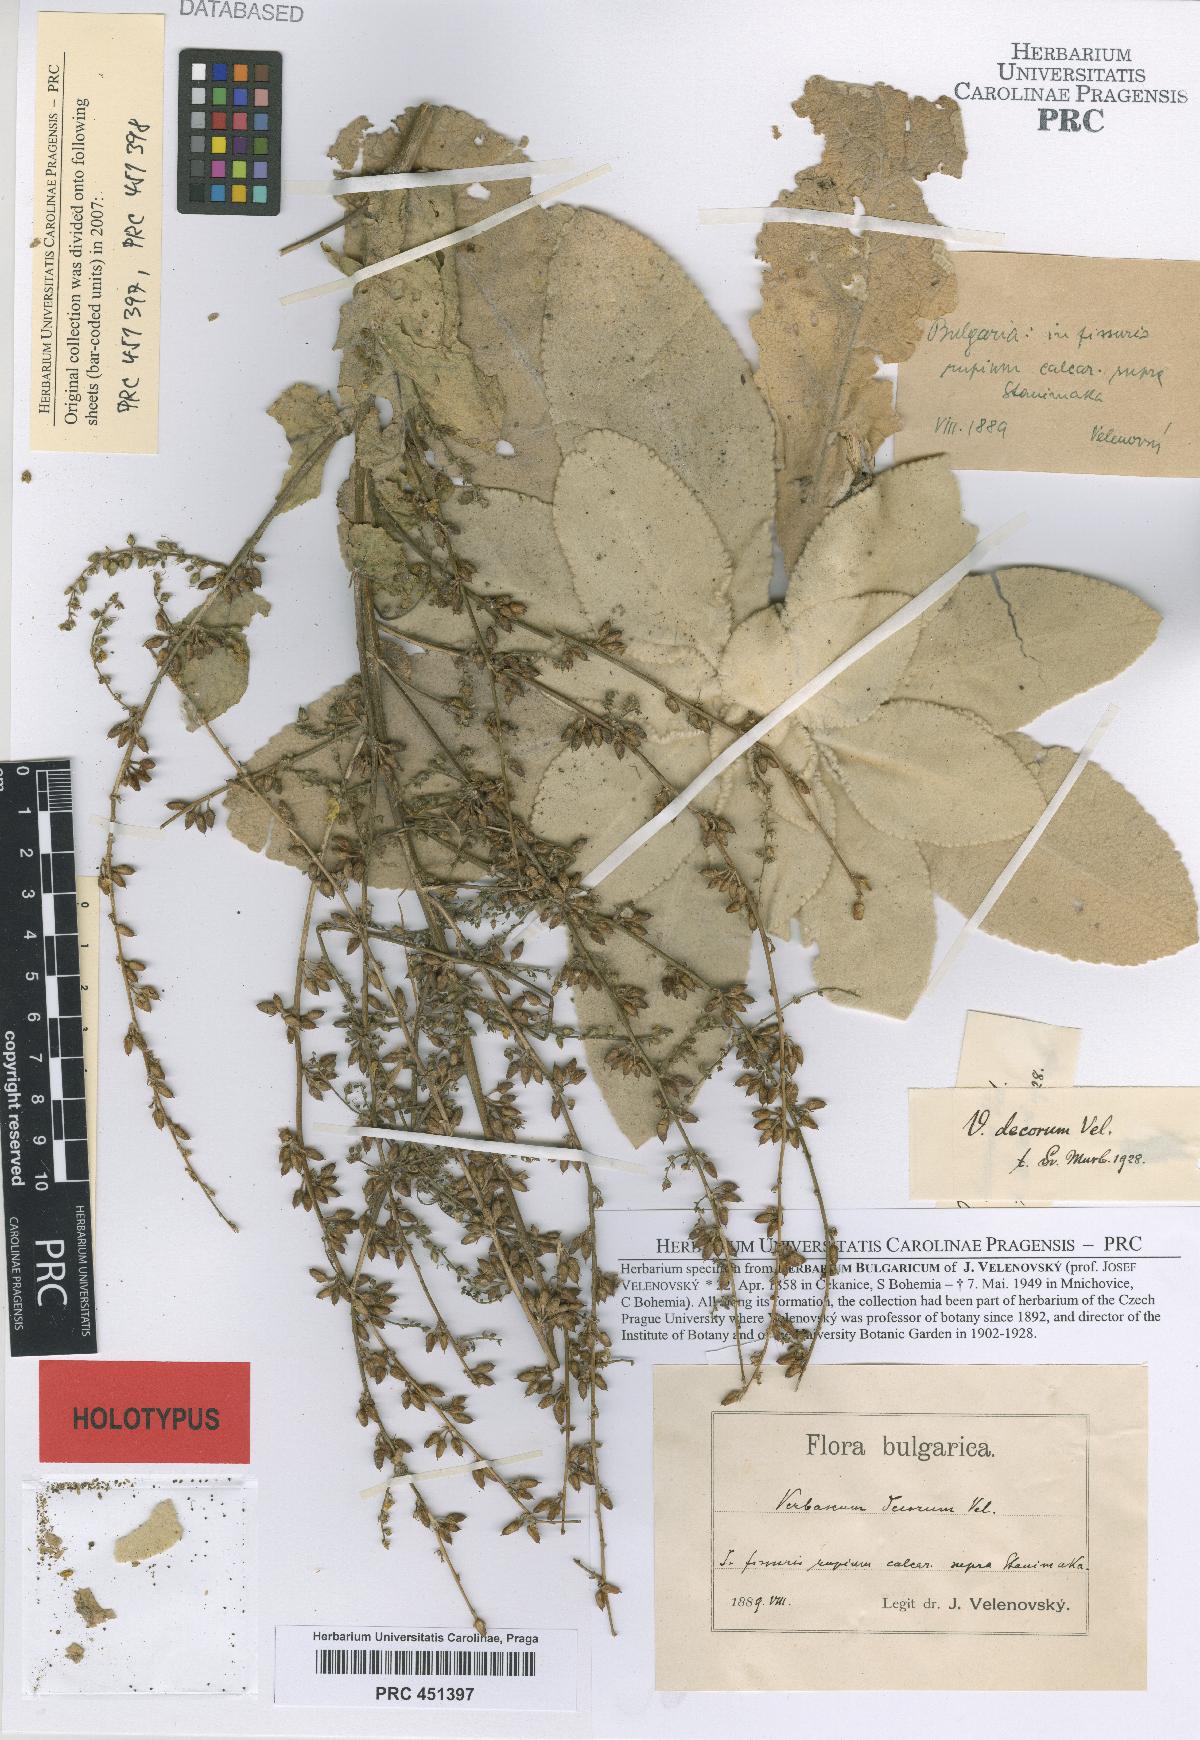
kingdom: Plantae
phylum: Tracheophyta
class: Magnoliopsida
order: Lamiales
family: Scrophulariaceae
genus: Verbascum
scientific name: Verbascum decorum
